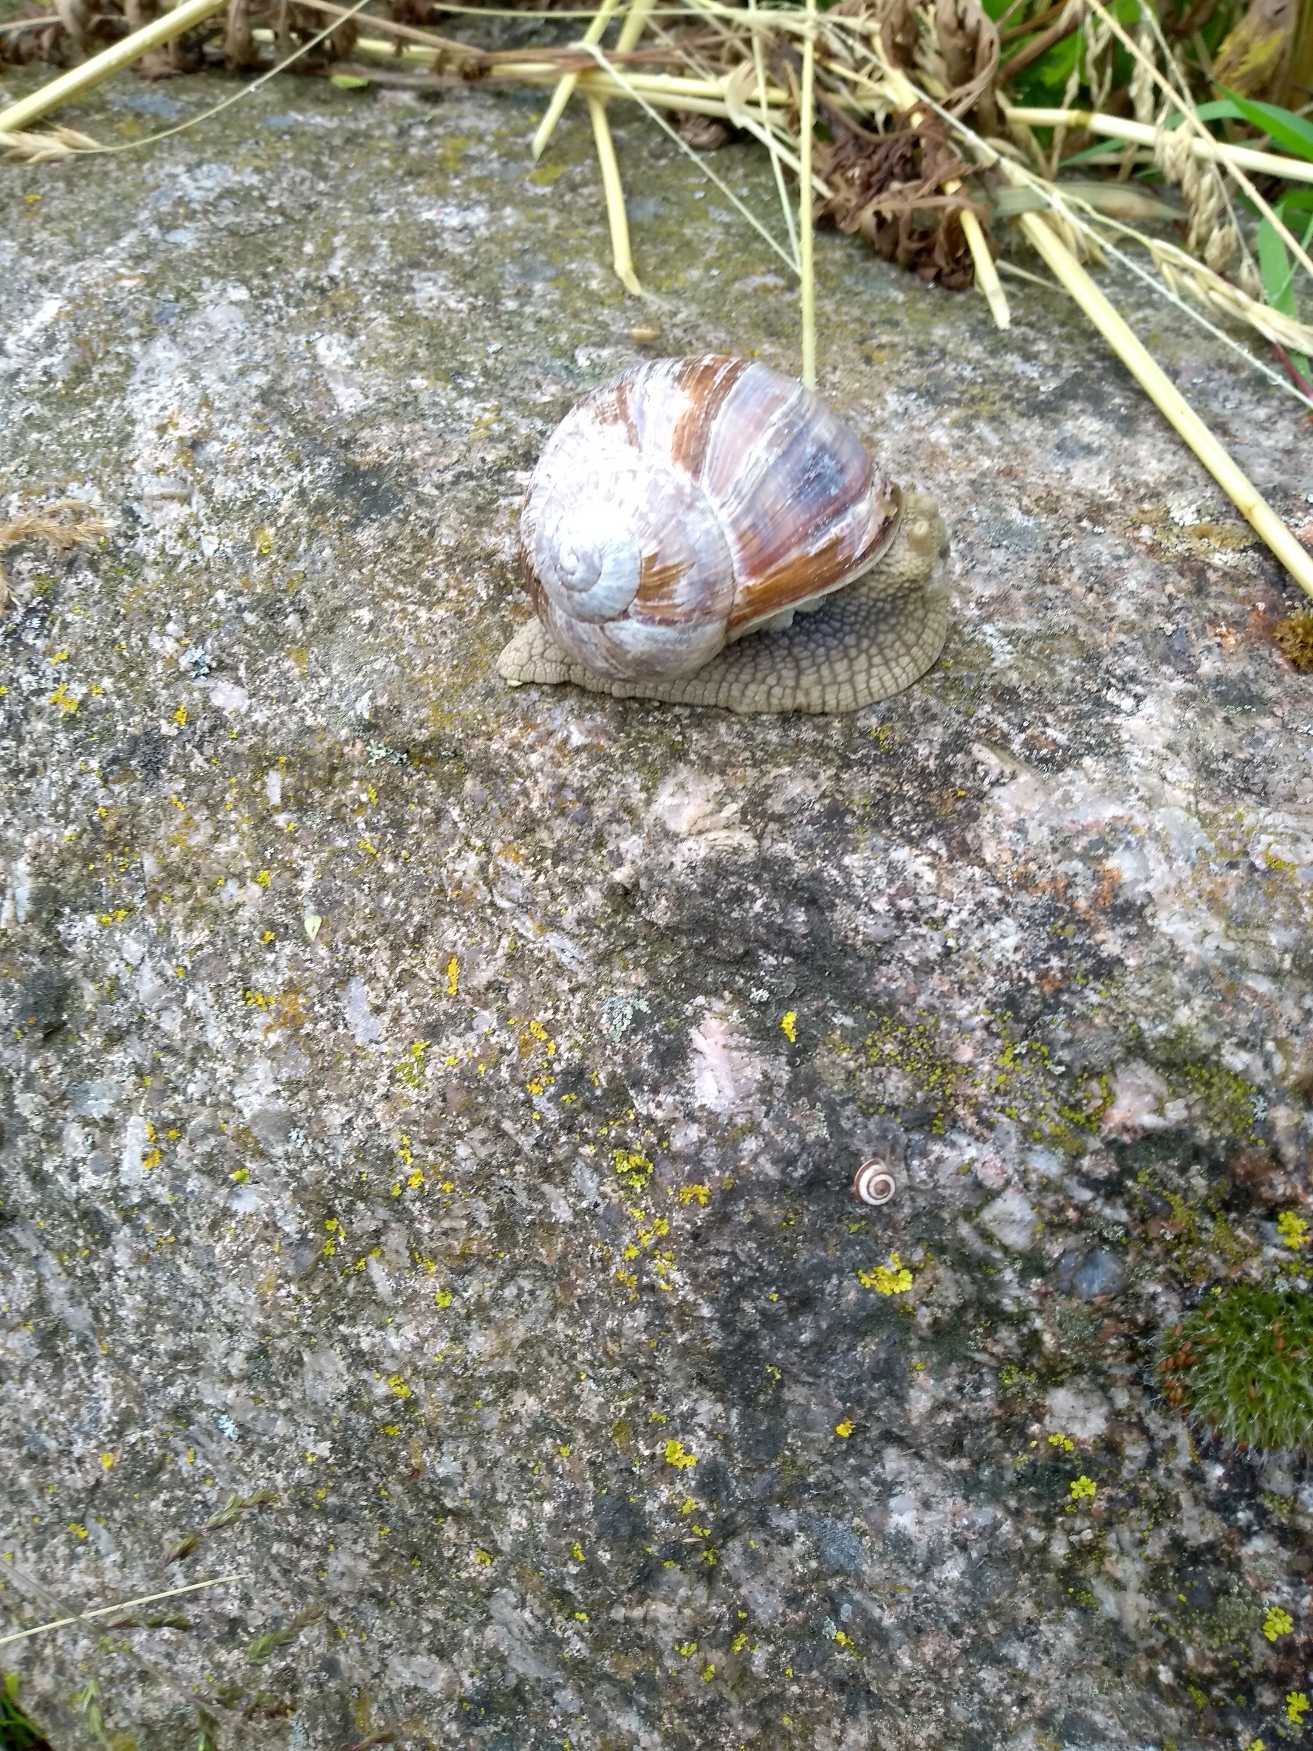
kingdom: Animalia
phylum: Mollusca
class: Gastropoda
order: Stylommatophora
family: Helicidae
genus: Helix
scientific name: Helix pomatia
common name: Vinbjergsnegl
